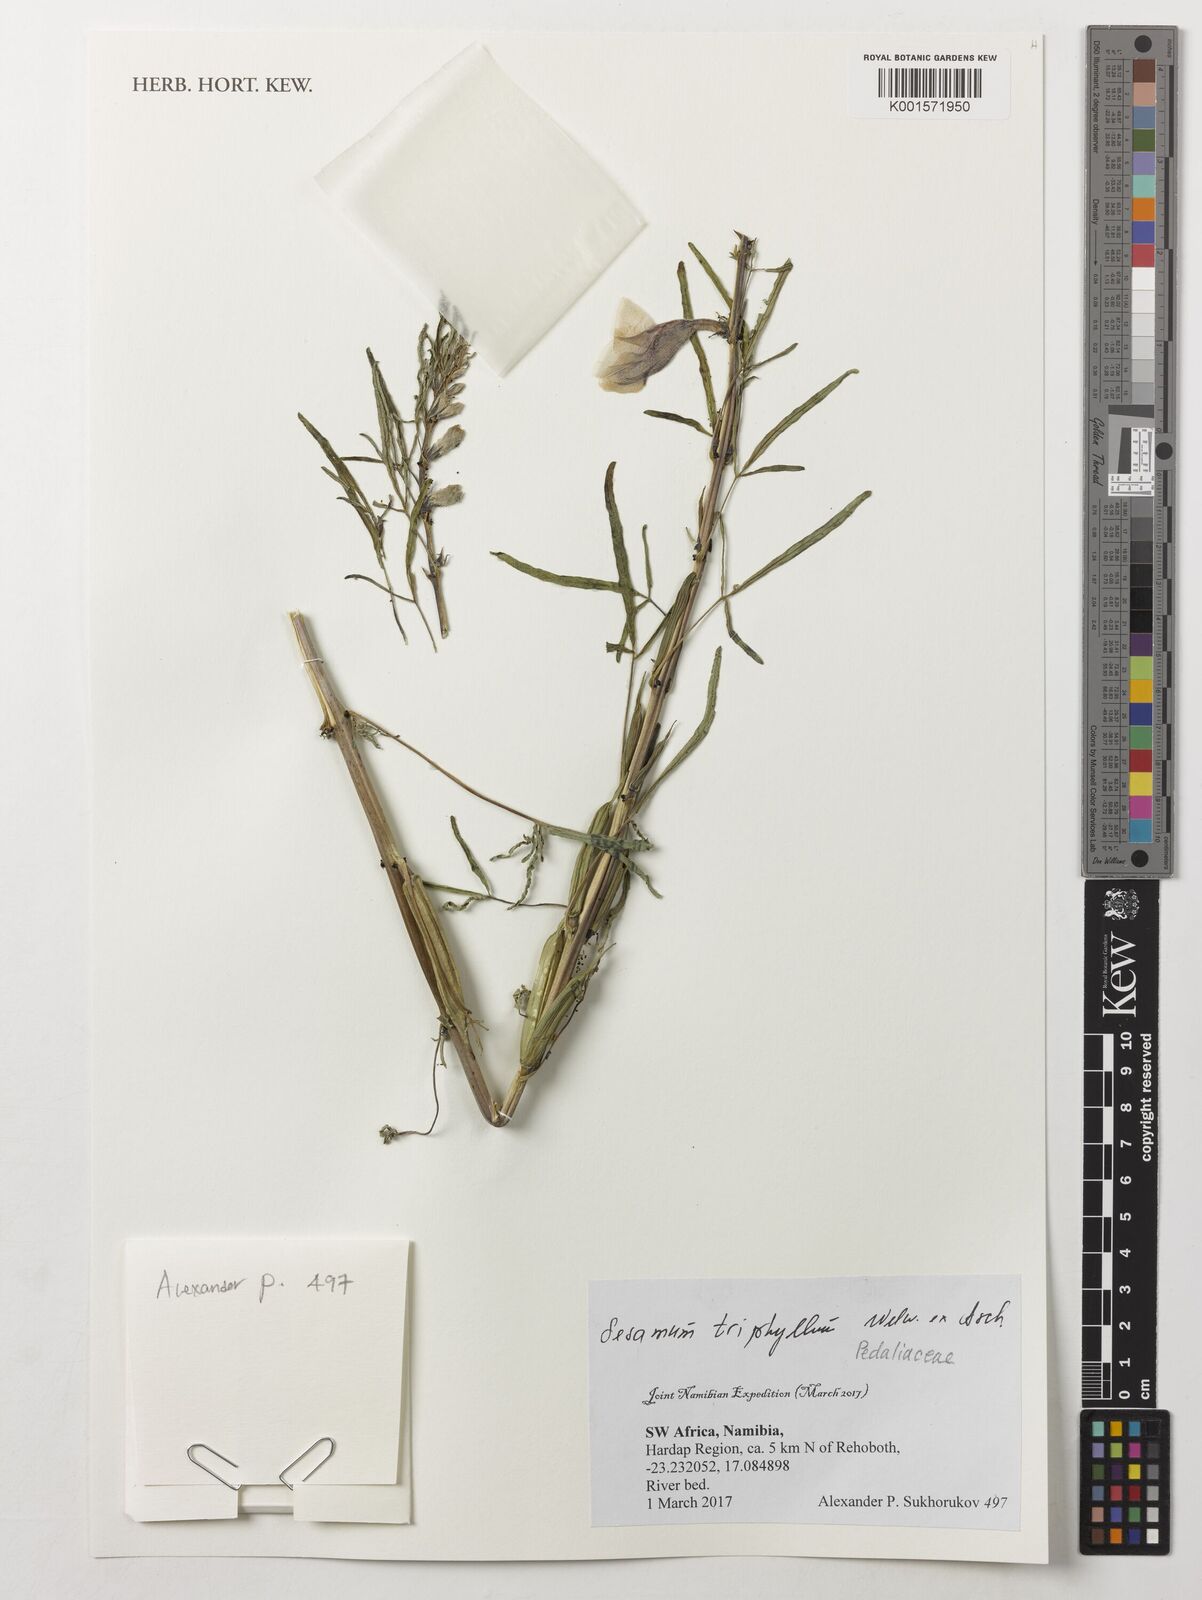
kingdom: Plantae
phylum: Tracheophyta
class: Magnoliopsida
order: Lamiales
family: Pedaliaceae
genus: Sesamum
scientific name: Sesamum triphyllum
